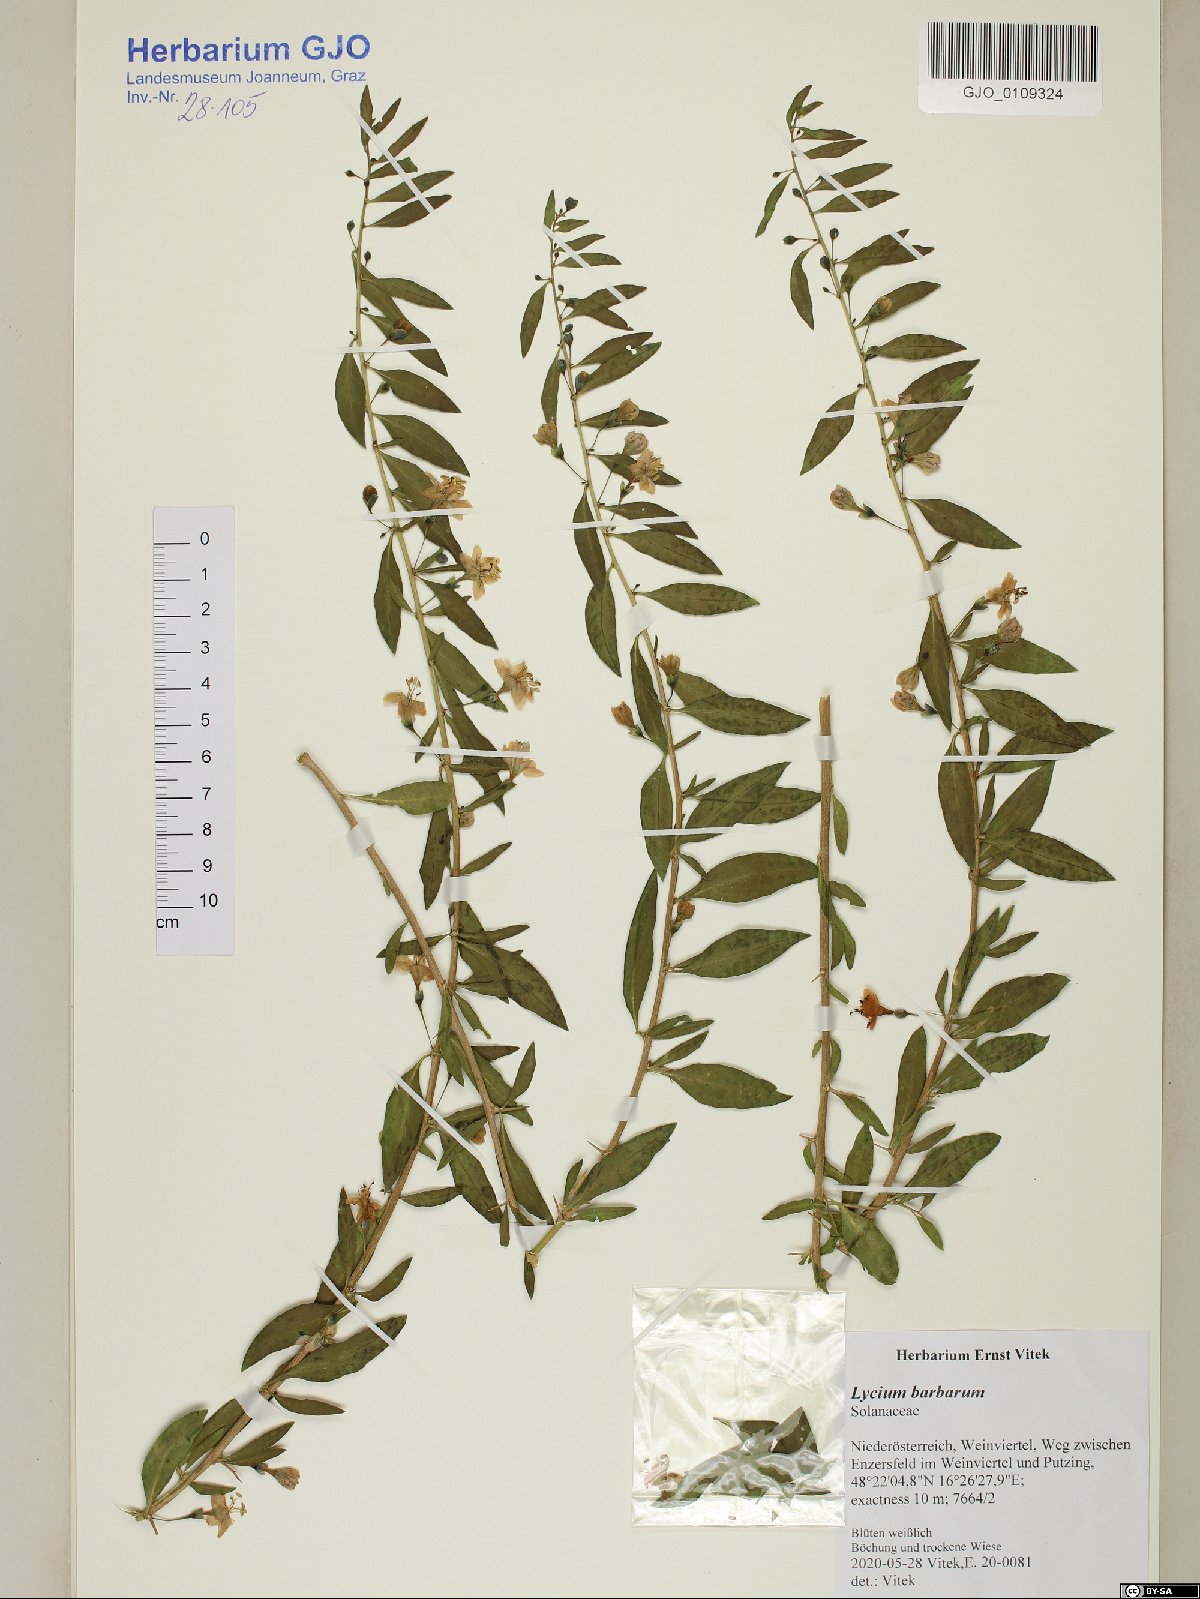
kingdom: Plantae
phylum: Tracheophyta
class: Magnoliopsida
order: Solanales
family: Solanaceae
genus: Lycium
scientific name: Lycium barbarum
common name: Duke of argyll's teaplant
